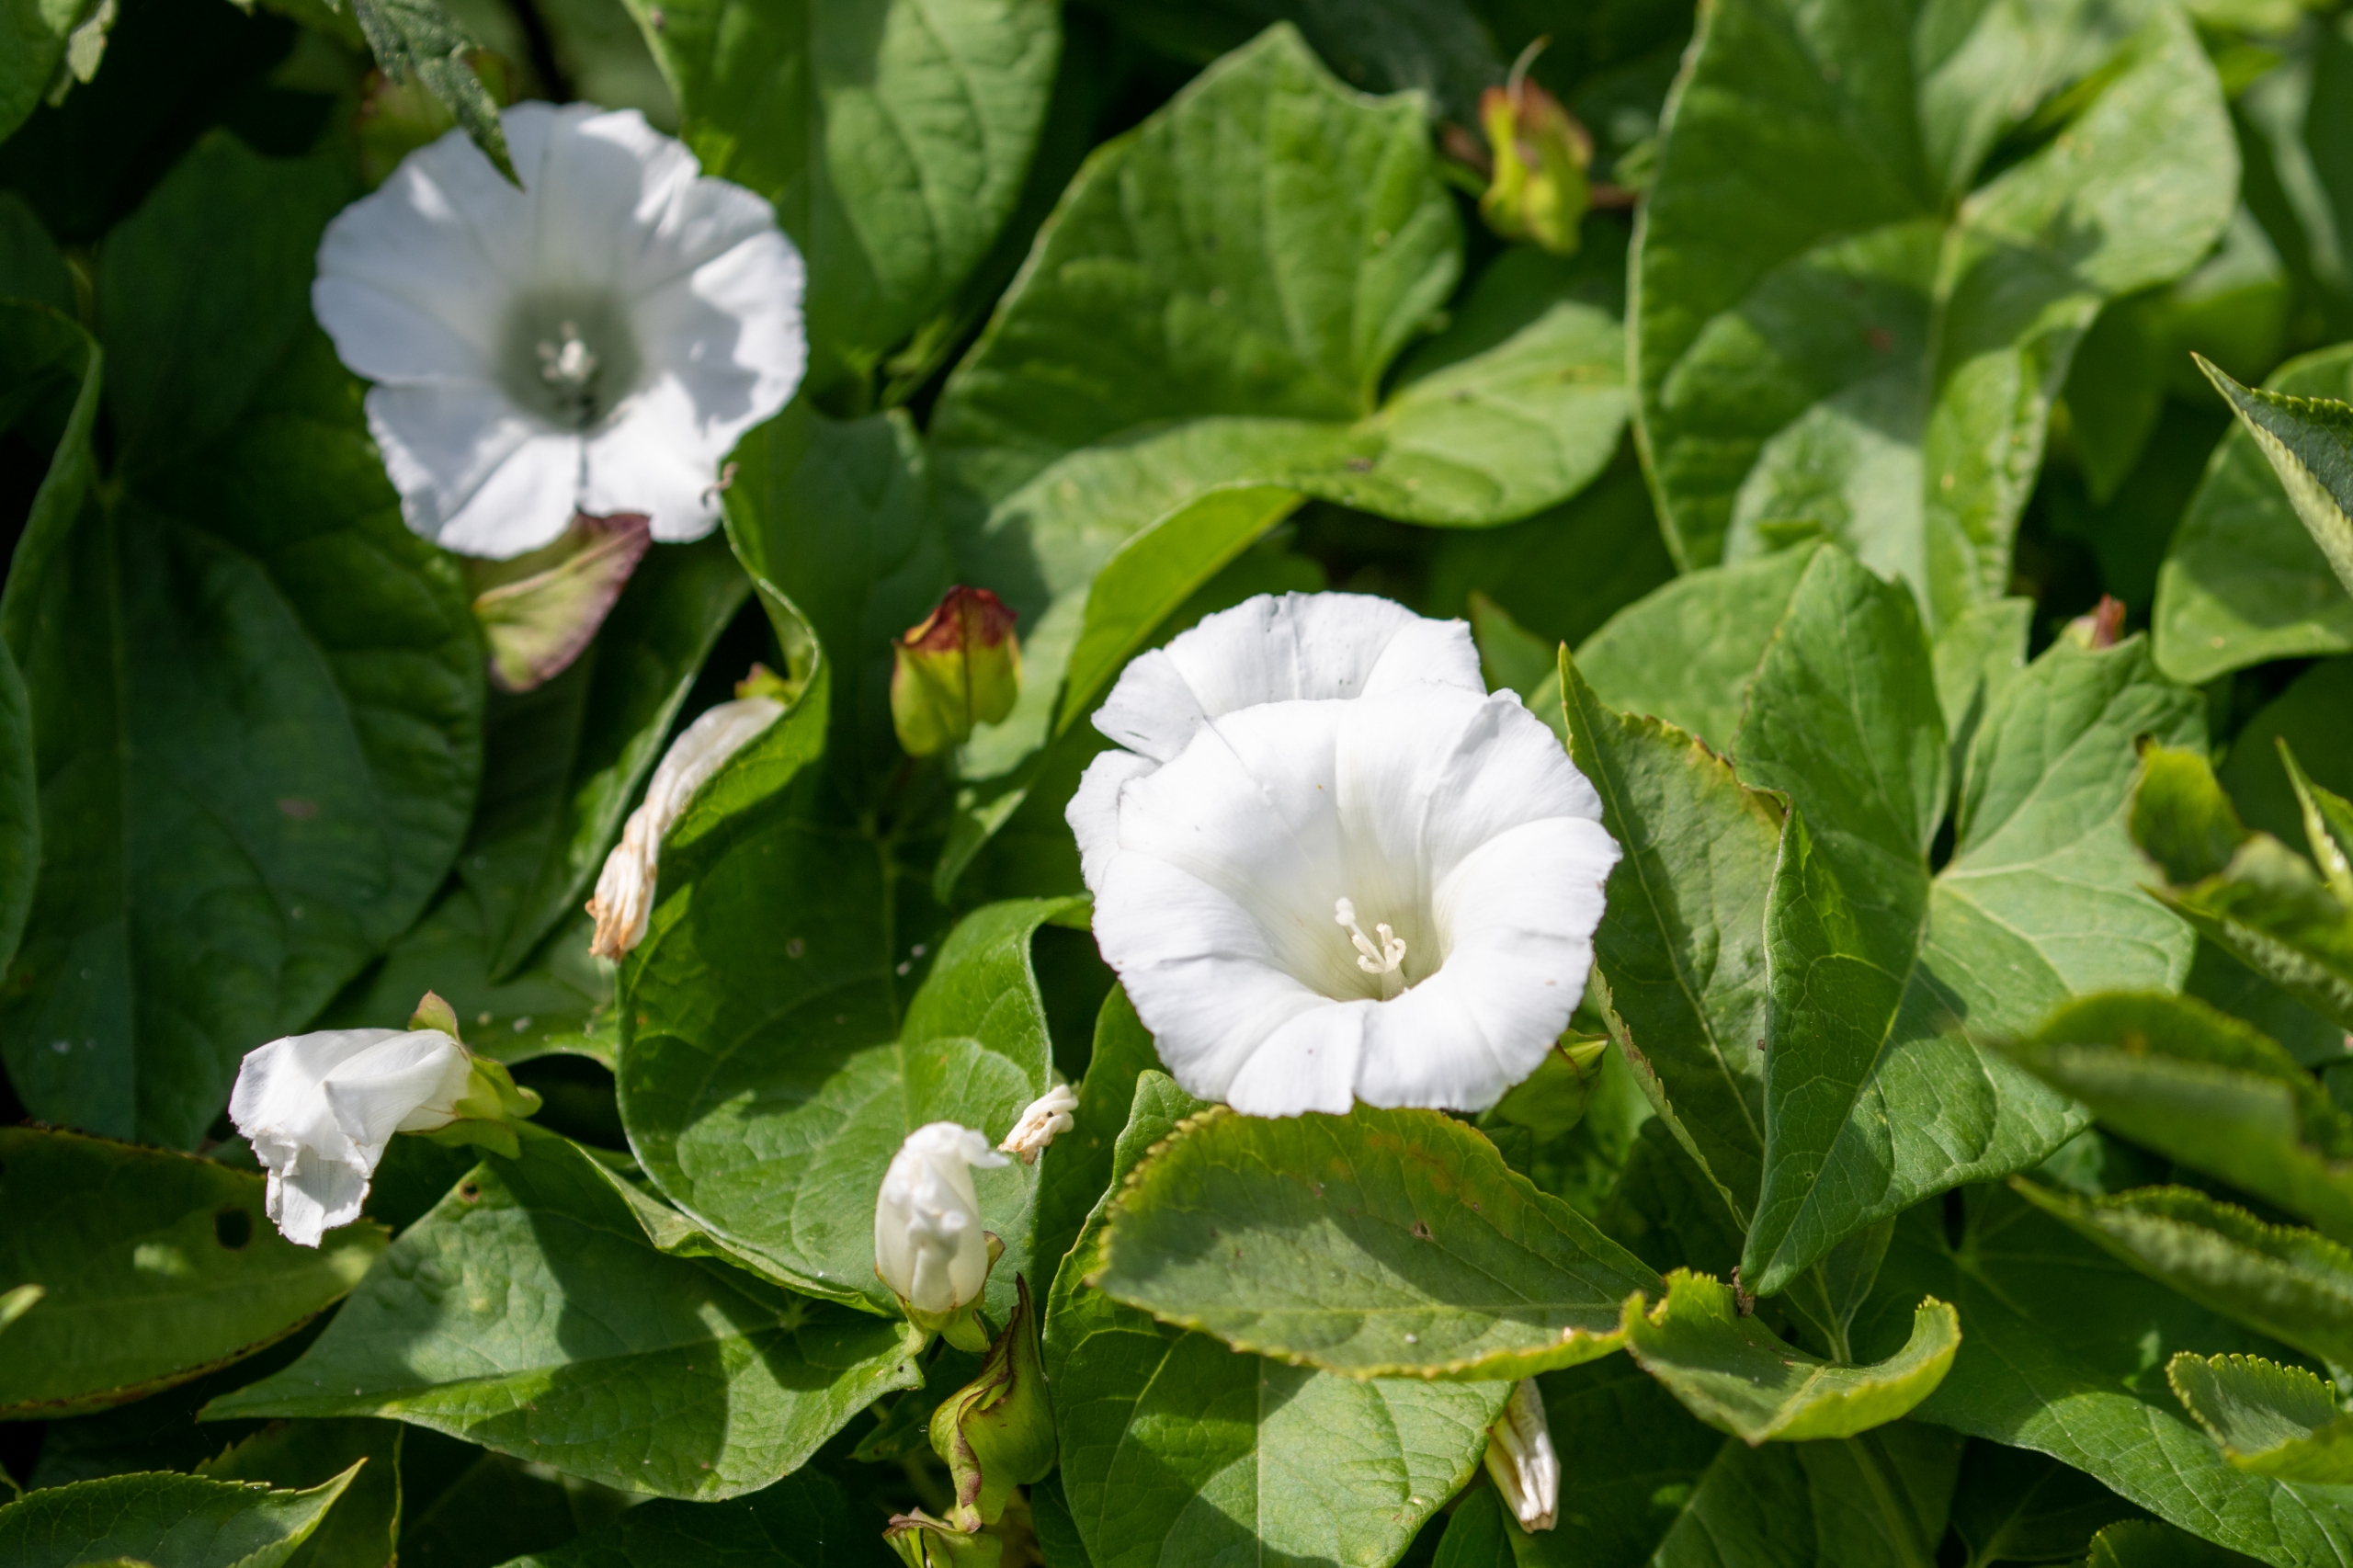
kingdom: Plantae
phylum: Tracheophyta
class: Magnoliopsida
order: Solanales
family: Convolvulaceae
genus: Calystegia
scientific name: Calystegia sepium
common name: Gærde-snerle
